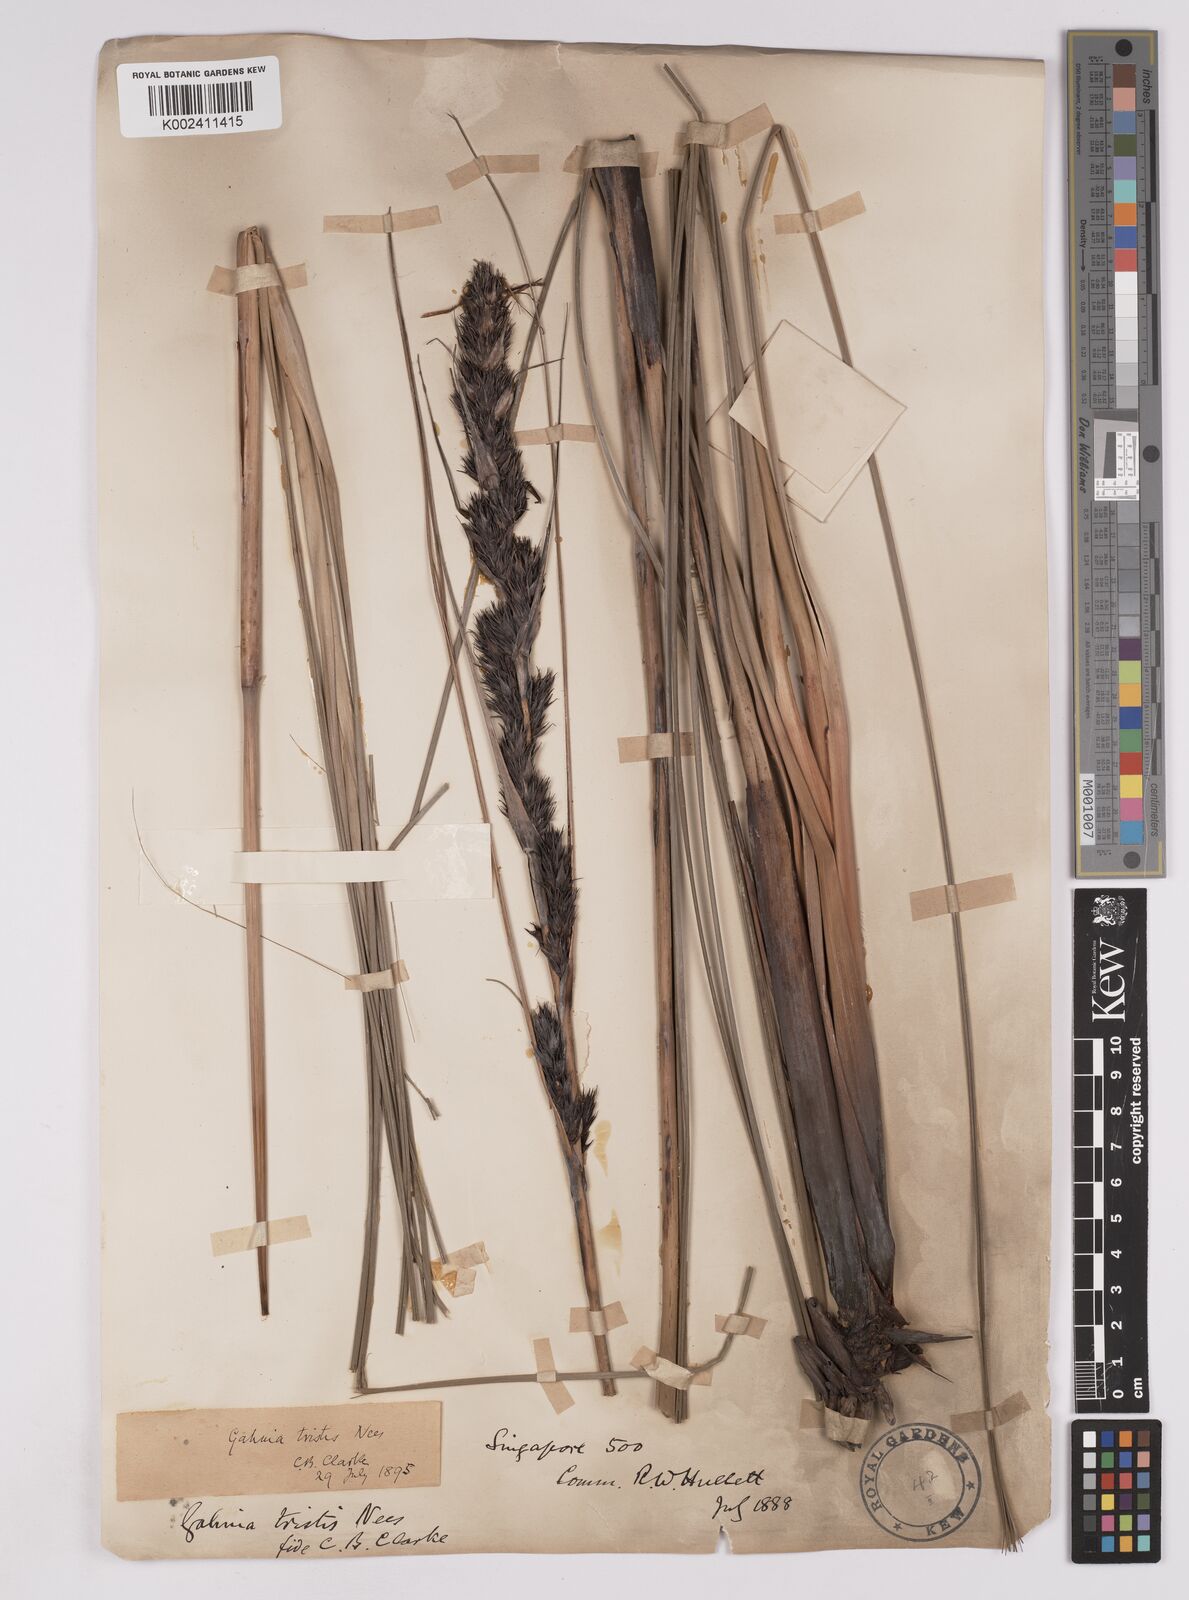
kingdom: Plantae
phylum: Tracheophyta
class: Liliopsida
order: Poales
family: Cyperaceae
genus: Gahnia
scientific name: Gahnia tristis
